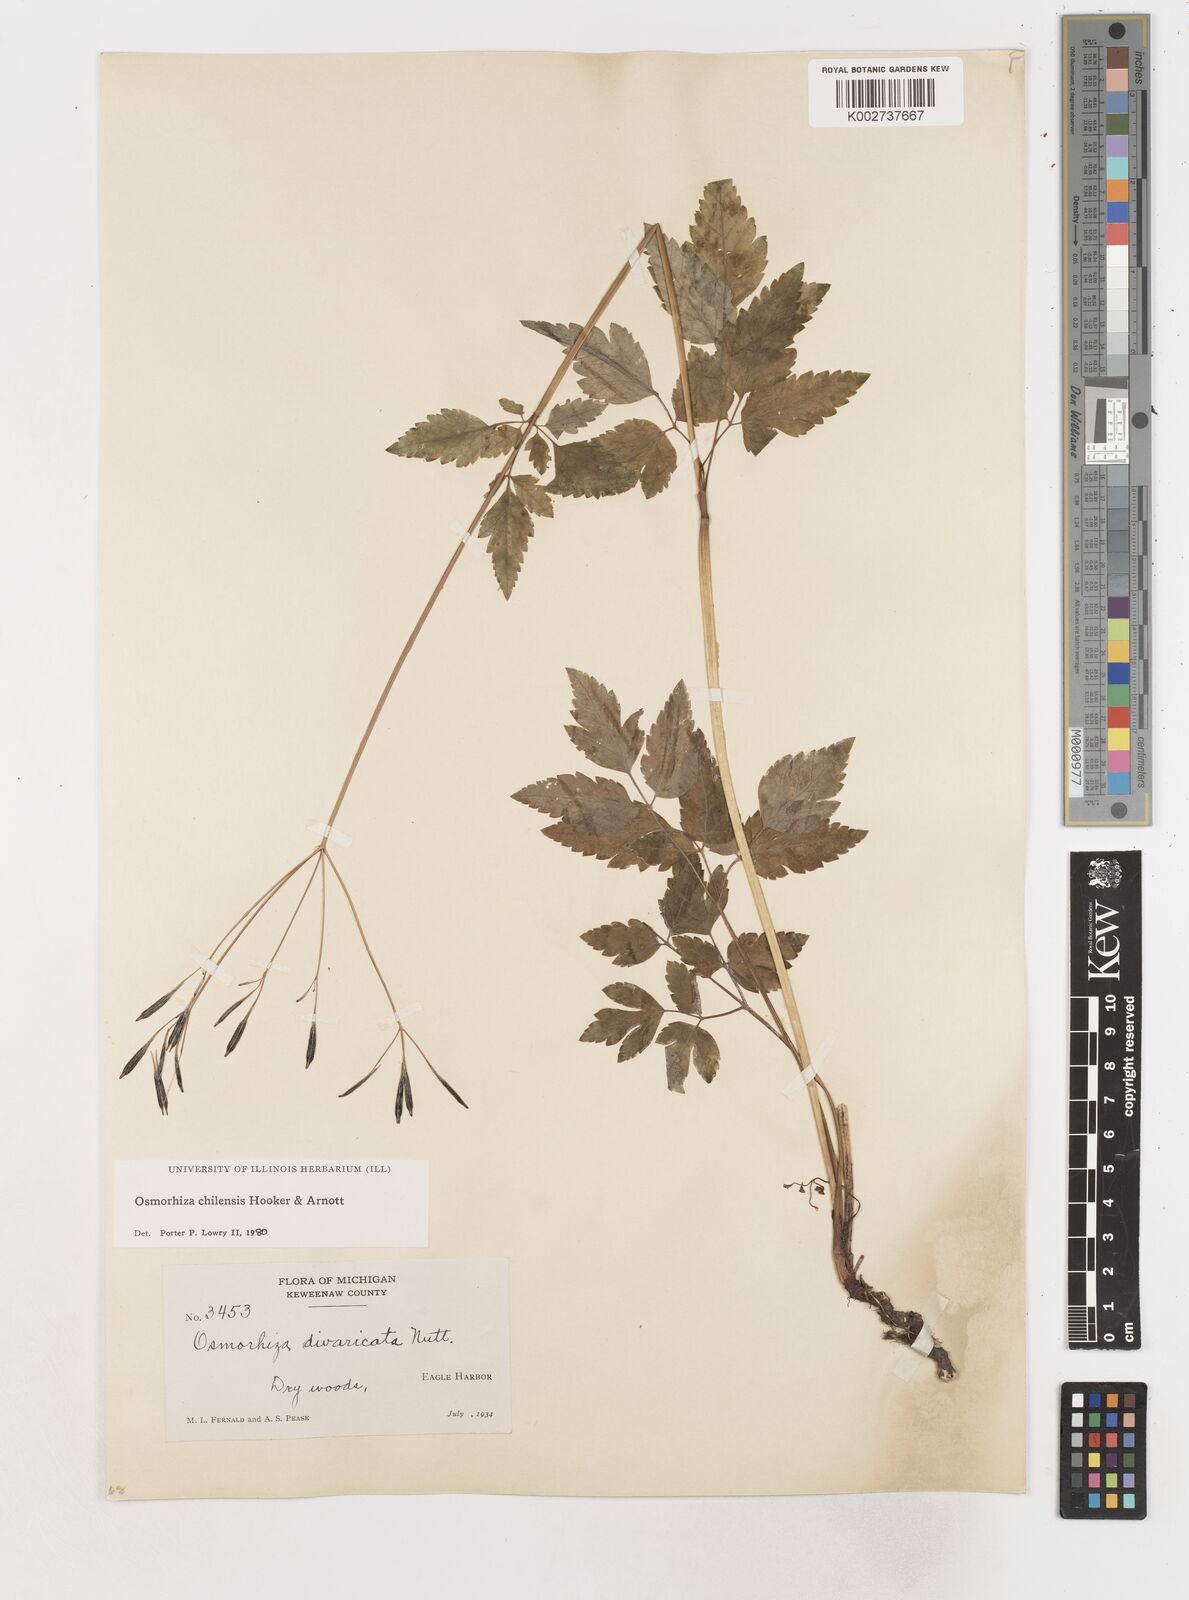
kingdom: Plantae
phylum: Tracheophyta
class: Magnoliopsida
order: Apiales
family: Apiaceae
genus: Osmorhiza
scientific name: Osmorhiza berteroi
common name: Mountain sweet cicely
